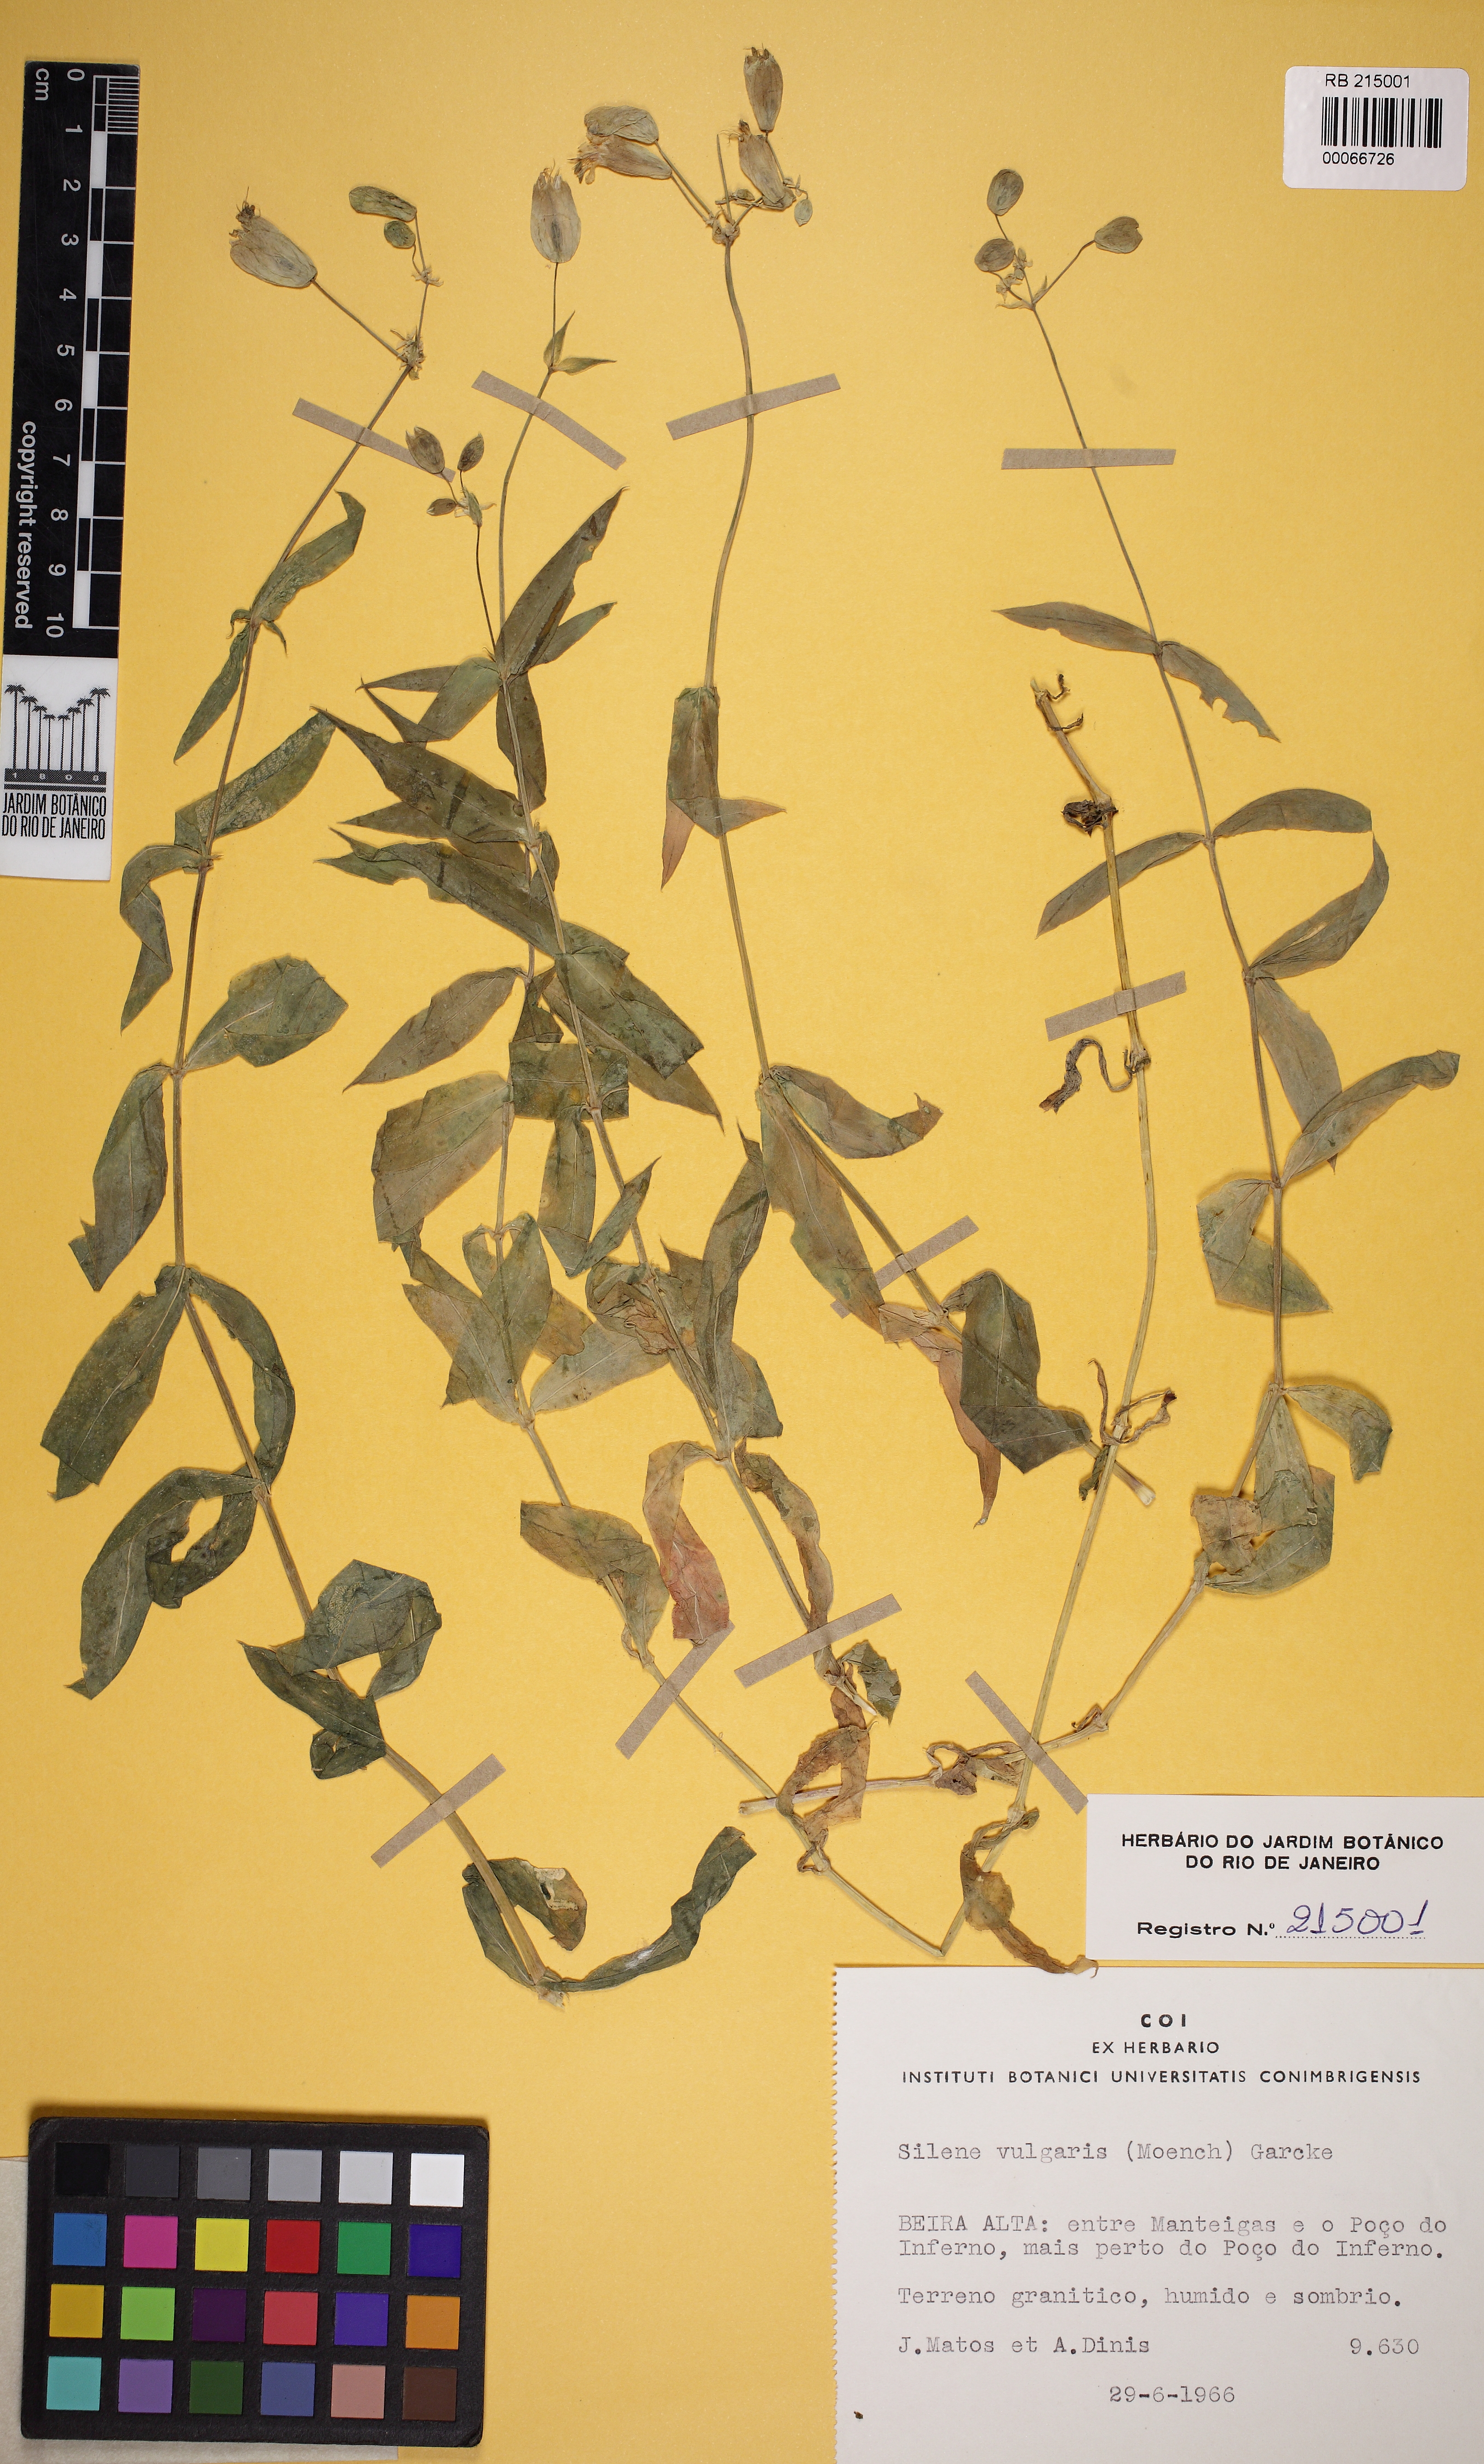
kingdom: Plantae
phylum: Tracheophyta
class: Magnoliopsida
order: Caryophyllales
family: Caryophyllaceae
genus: Silene
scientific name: Silene vulgaris
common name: Bladder campion
